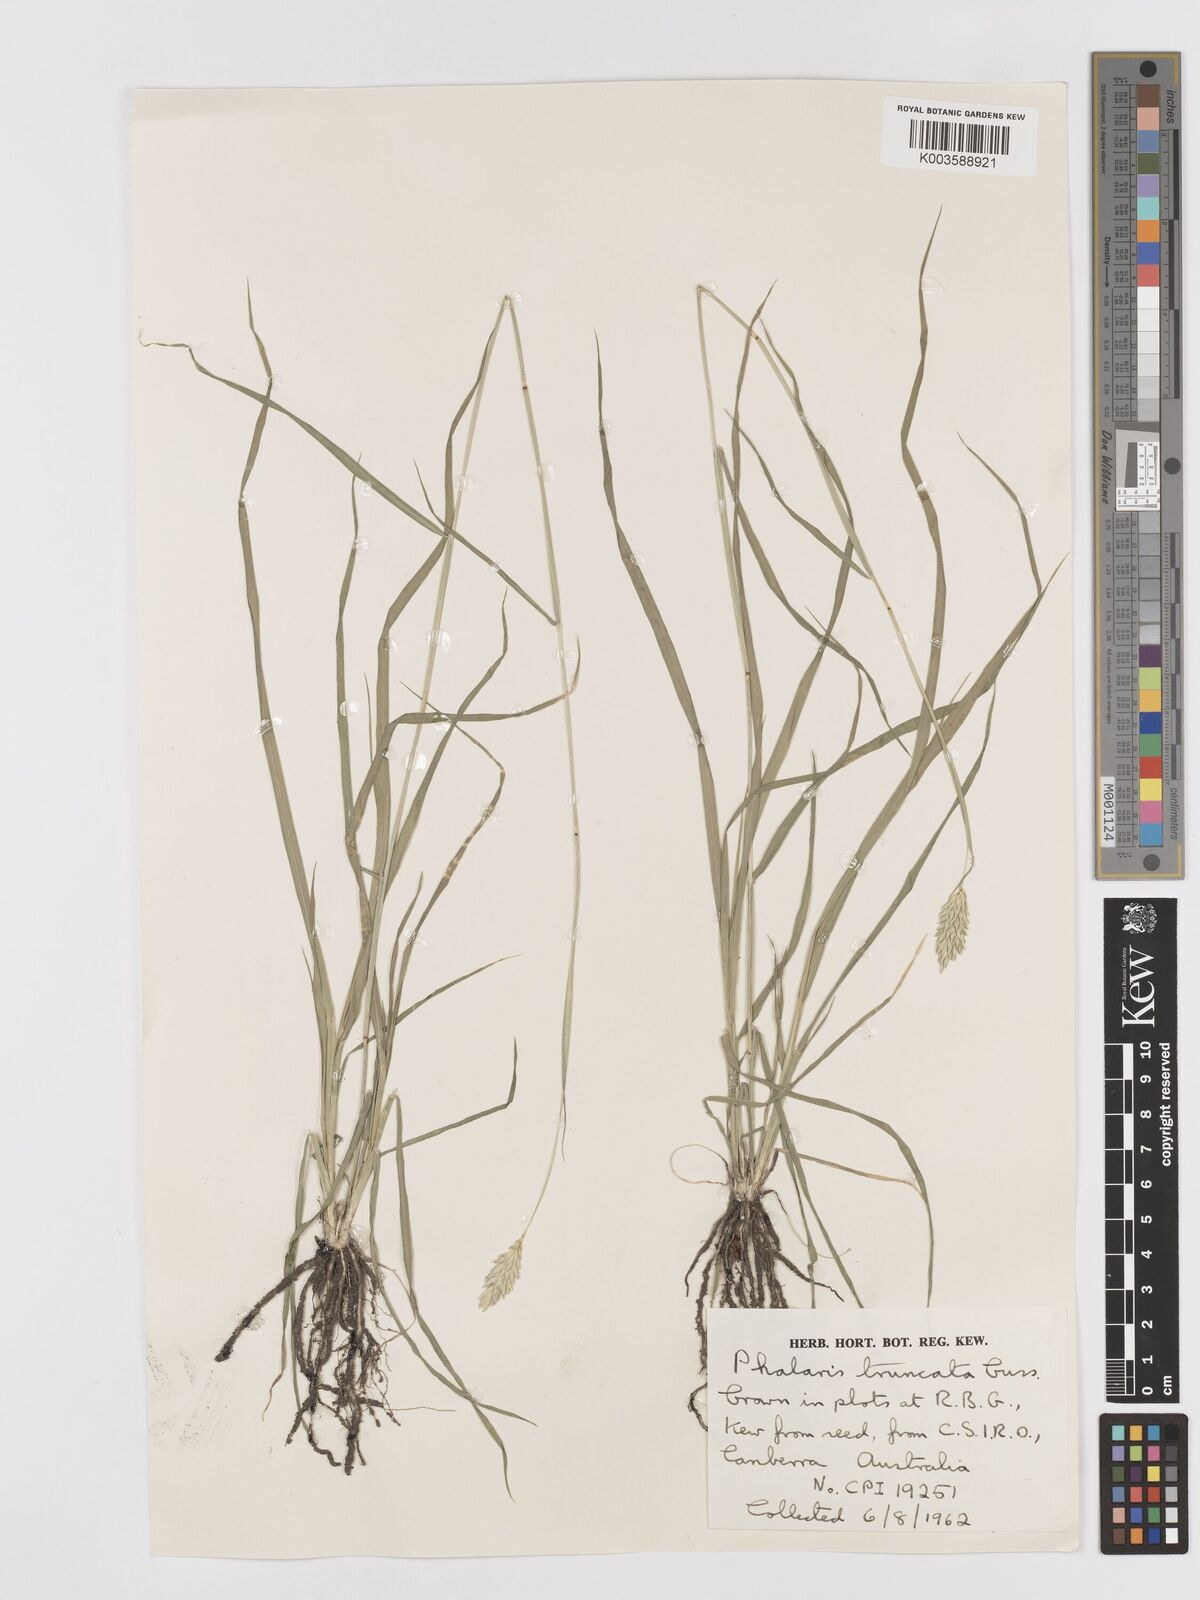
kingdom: Plantae
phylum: Tracheophyta
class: Liliopsida
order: Poales
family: Poaceae
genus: Phalaris
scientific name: Phalaris truncata
